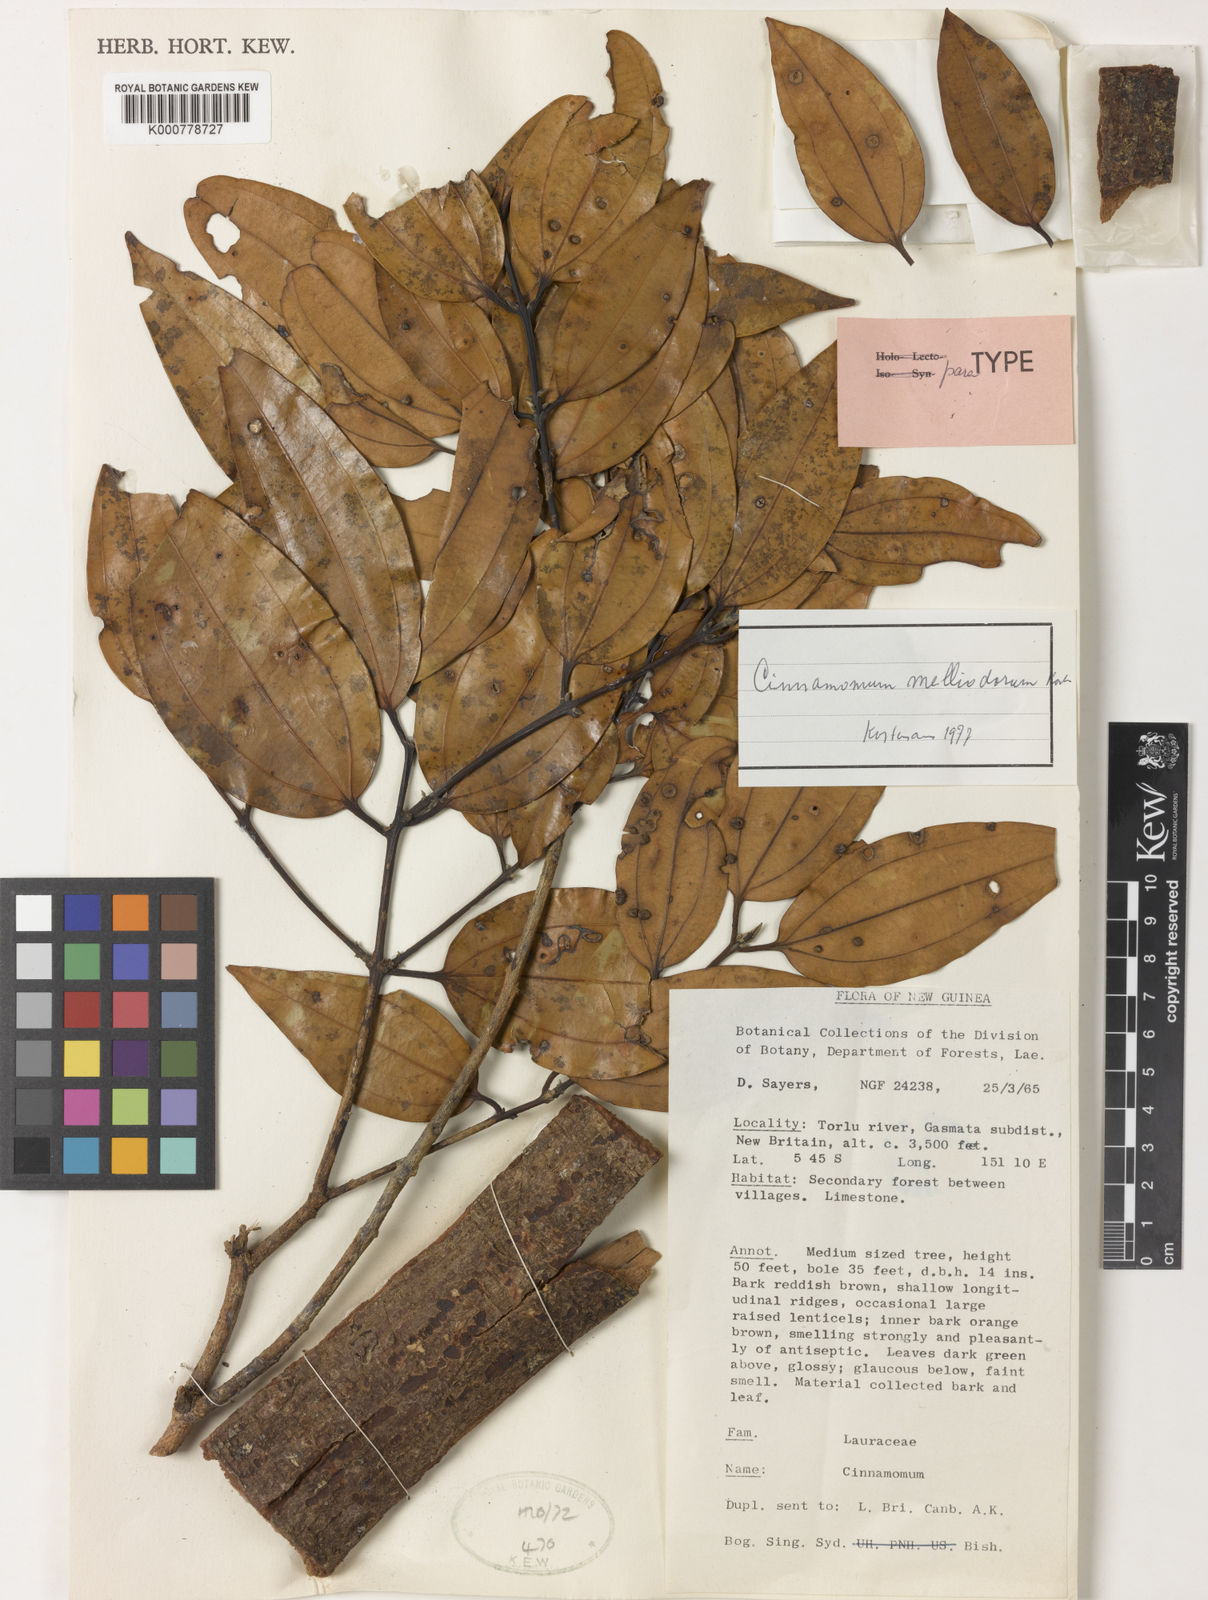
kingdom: Plantae
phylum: Tracheophyta
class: Magnoliopsida
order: Laurales
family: Lauraceae
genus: Cinnamomum
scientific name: Cinnamomum melliodorum
